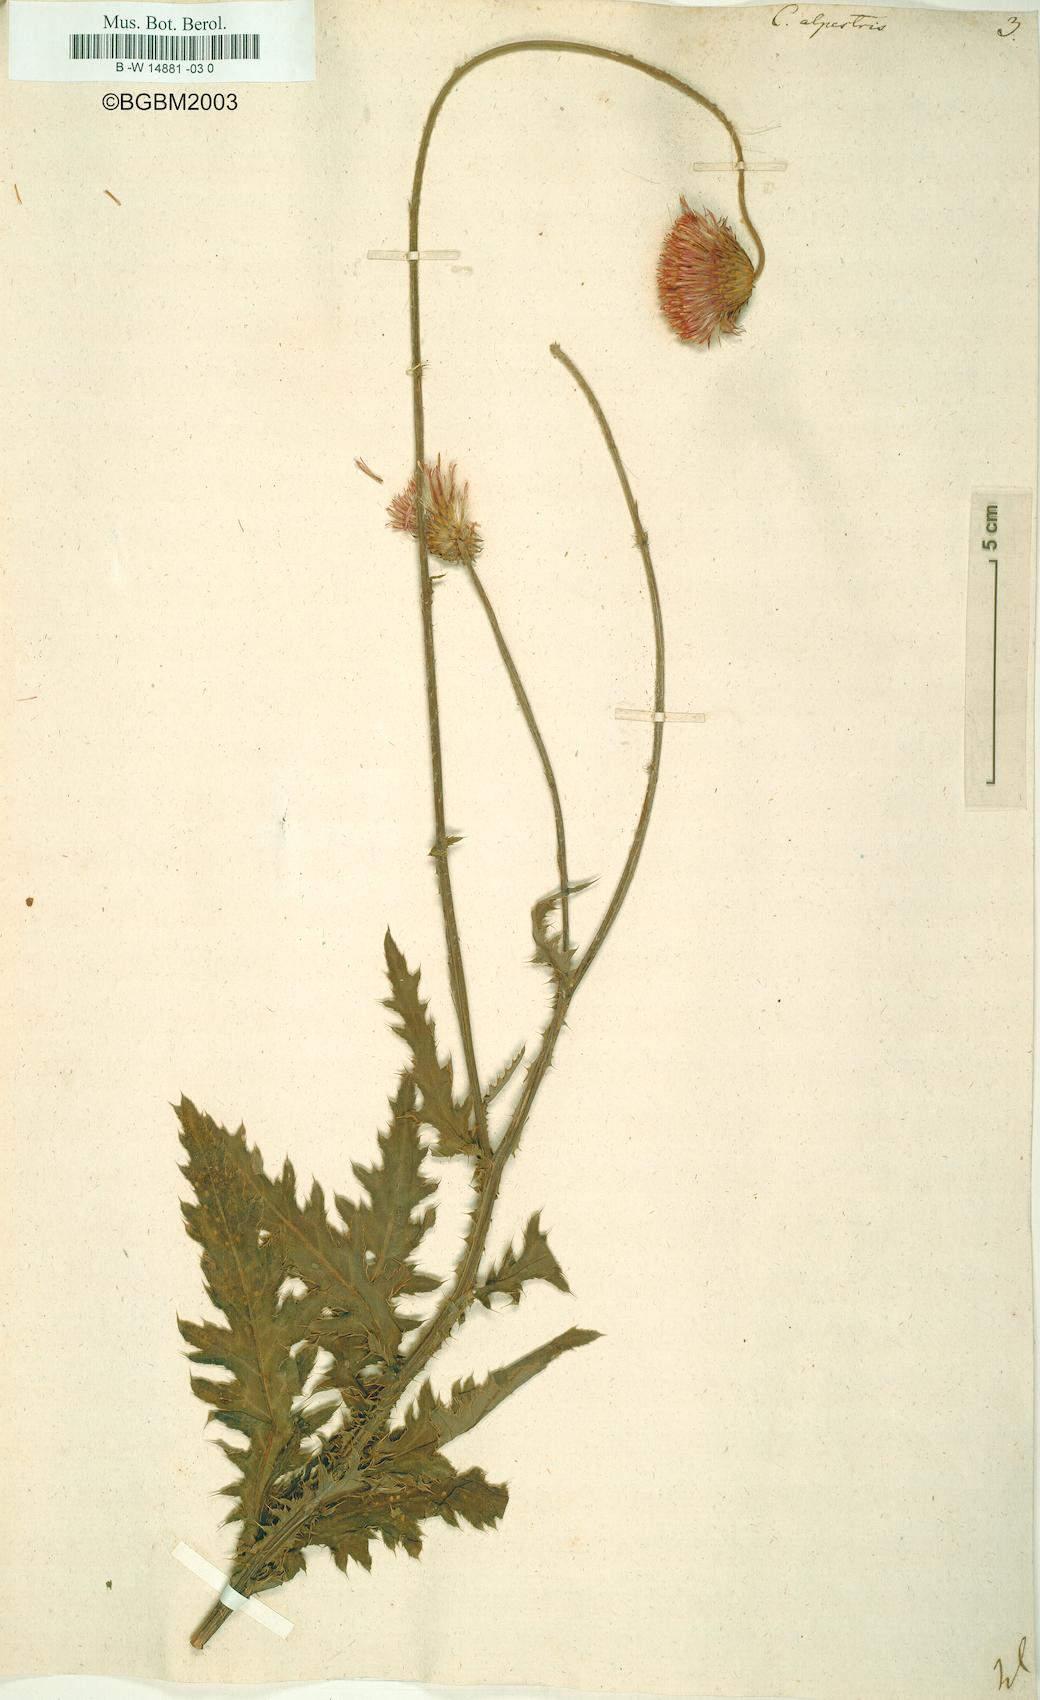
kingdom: Plantae
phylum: Tracheophyta
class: Magnoliopsida
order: Asterales
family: Asteraceae
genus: Carduus
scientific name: Carduus carduelis
